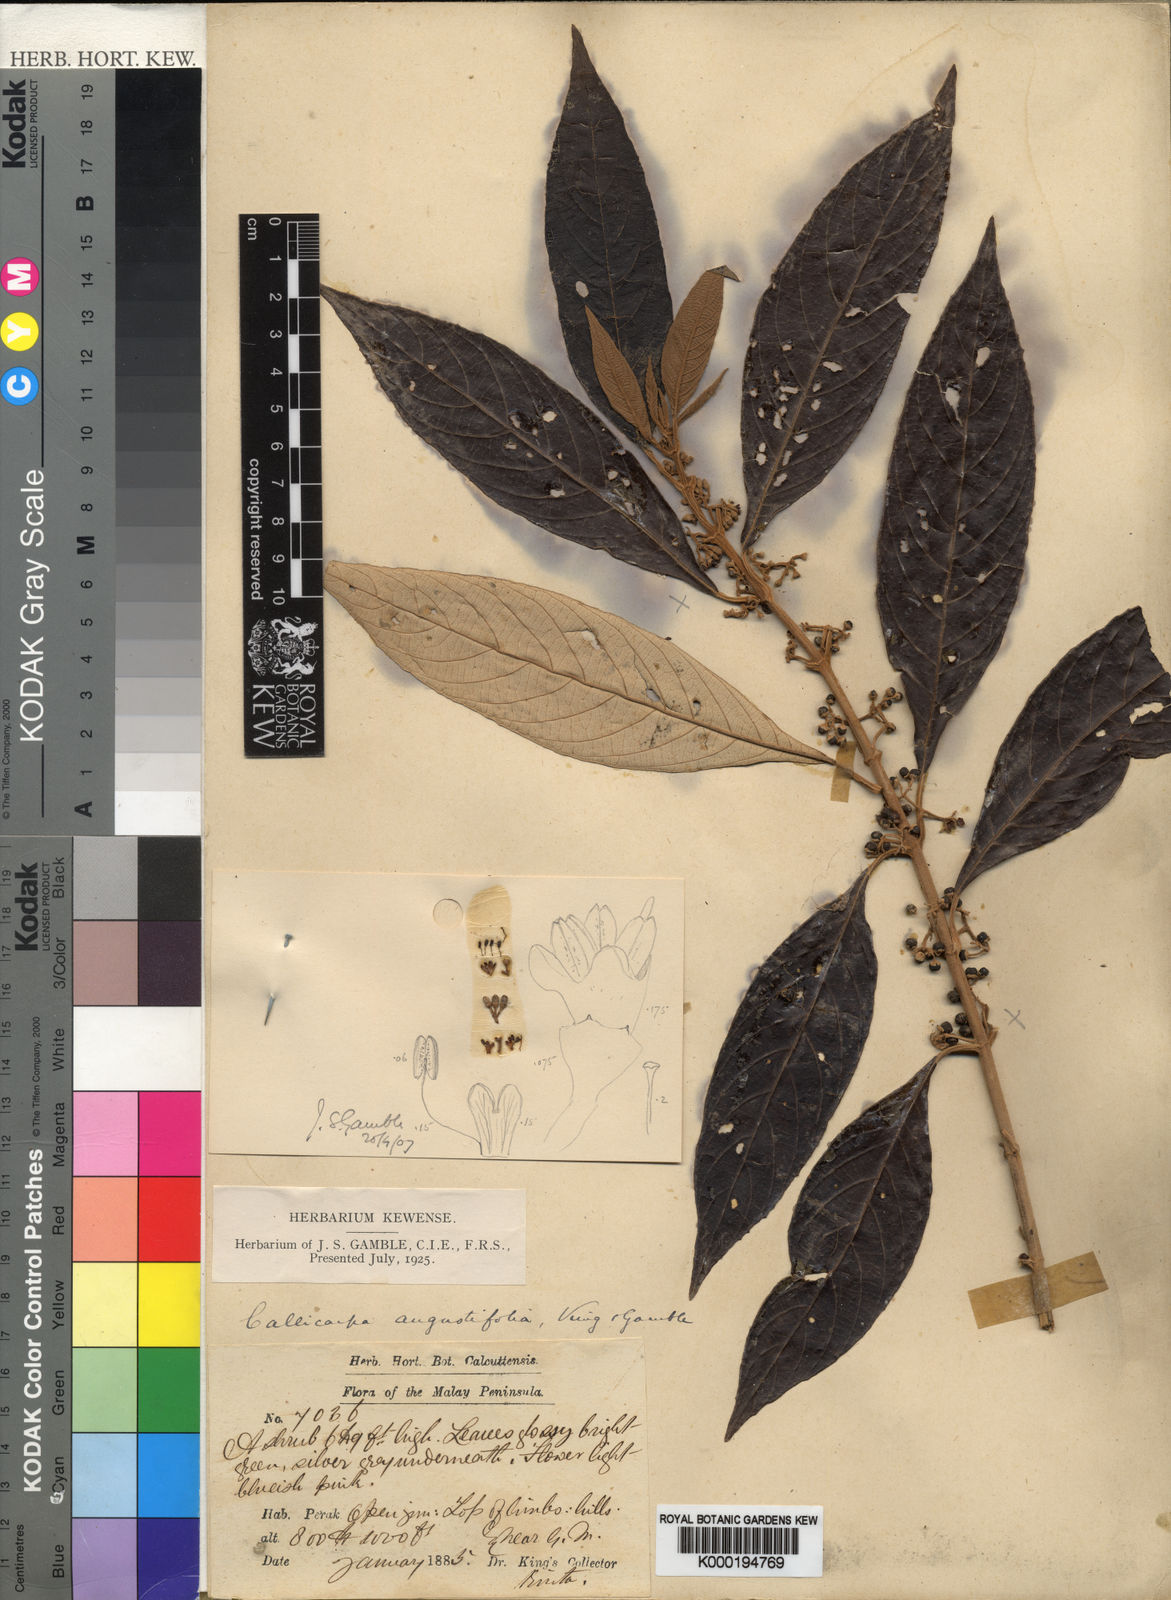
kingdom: Plantae
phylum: Tracheophyta
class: Magnoliopsida
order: Lamiales
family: Lamiaceae
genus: Callicarpa
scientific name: Callicarpa angustifolia
